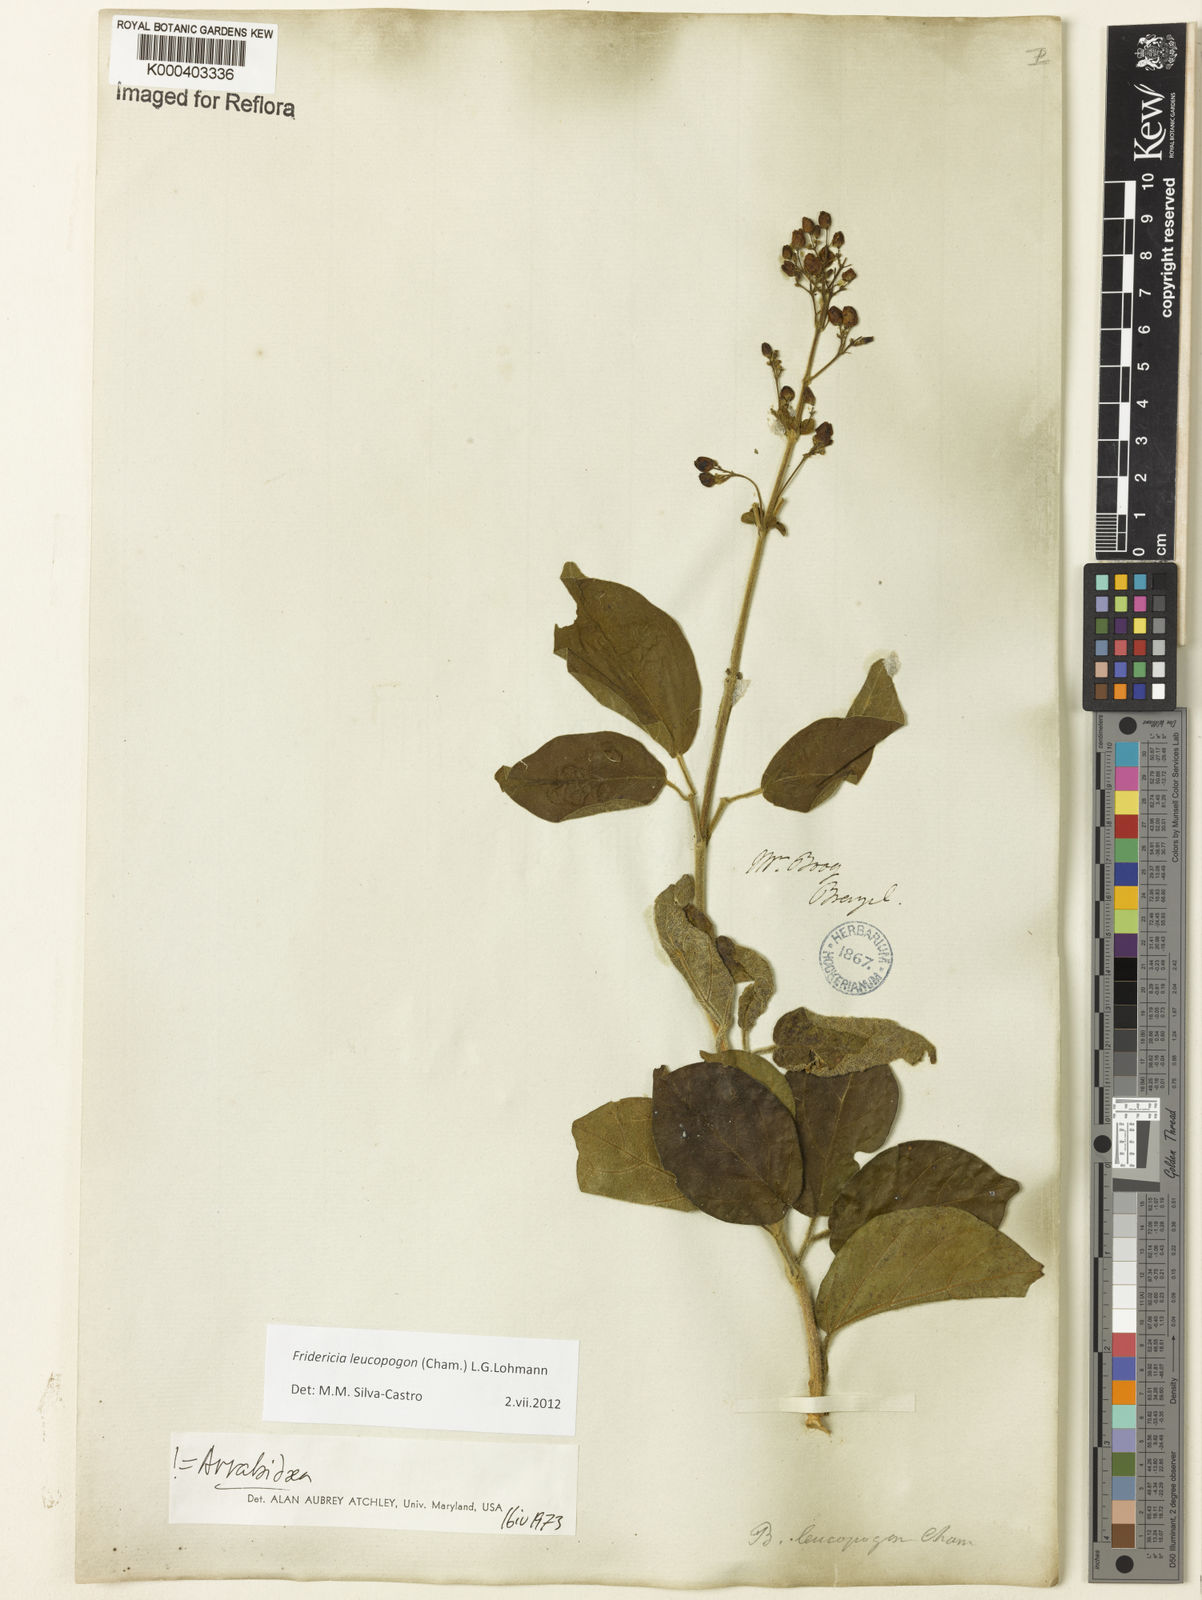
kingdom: Plantae
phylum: Tracheophyta
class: Magnoliopsida
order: Lamiales
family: Bignoniaceae
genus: Fridericia
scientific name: Fridericia leucopogon
